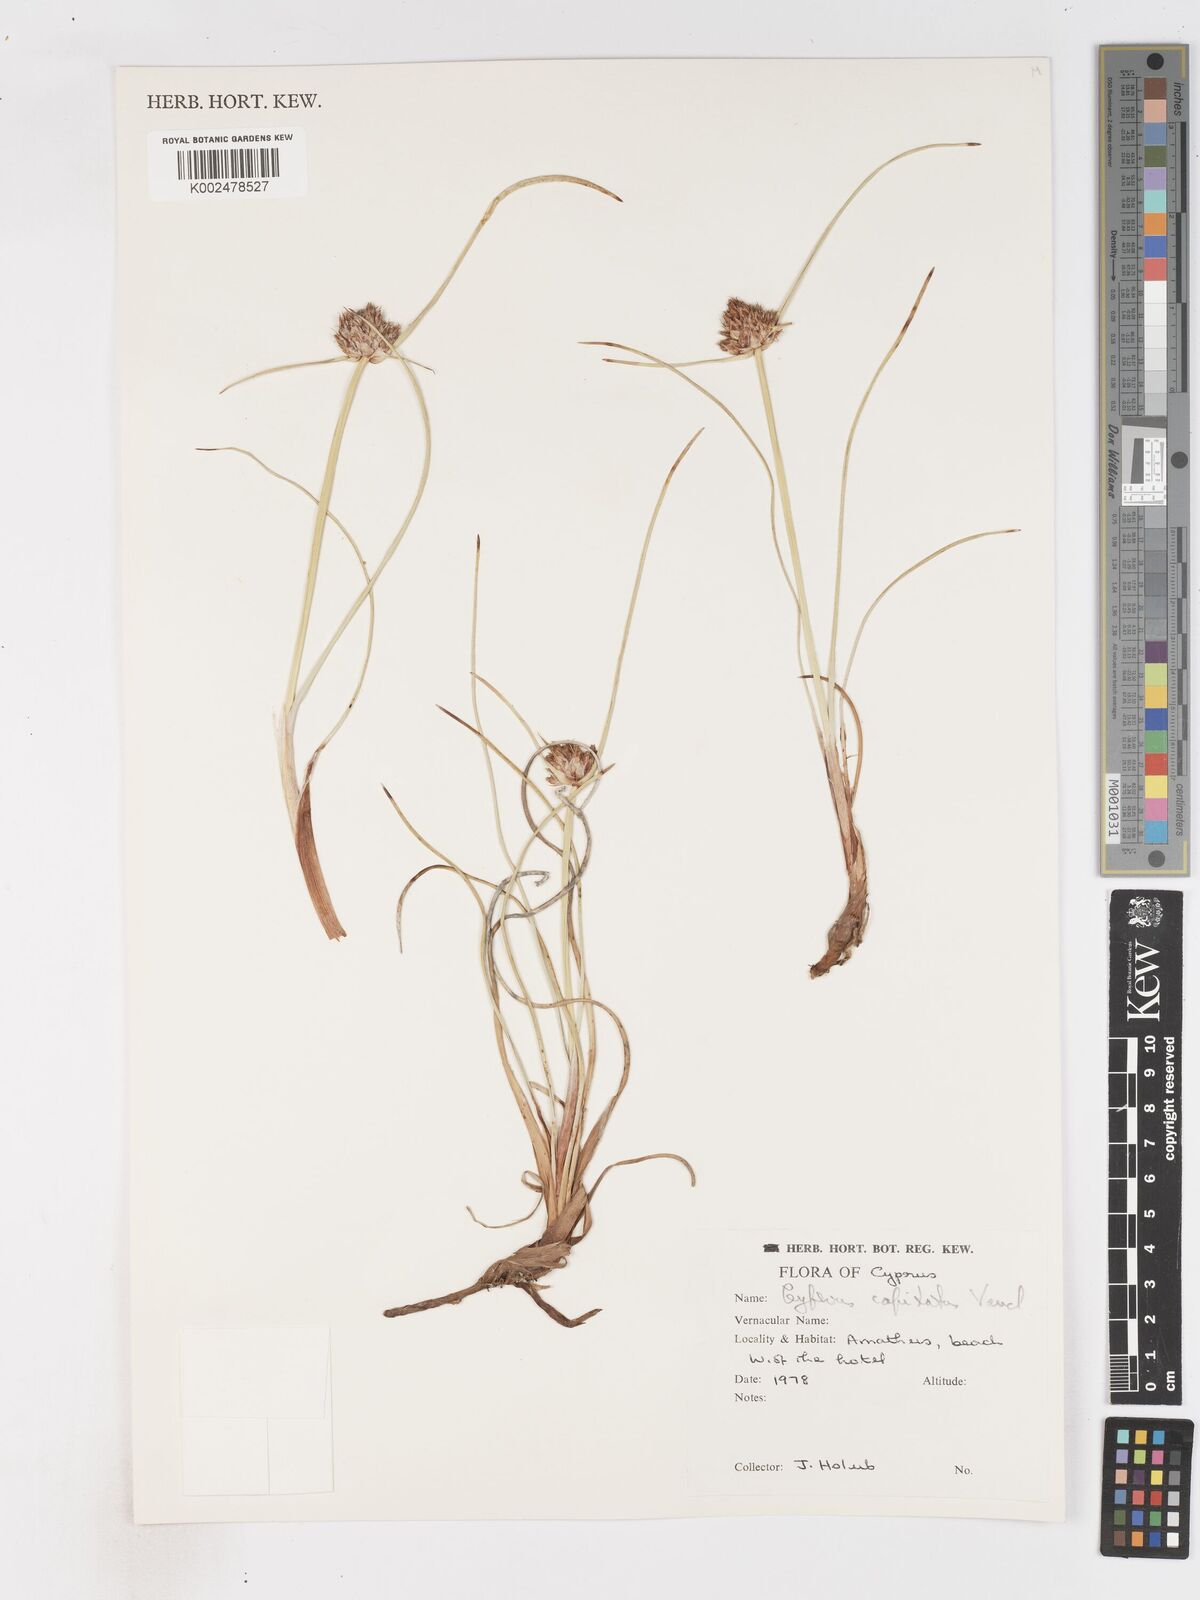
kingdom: Plantae
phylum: Tracheophyta
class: Liliopsida
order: Poales
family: Cyperaceae
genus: Cyperus
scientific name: Cyperus capitatus
